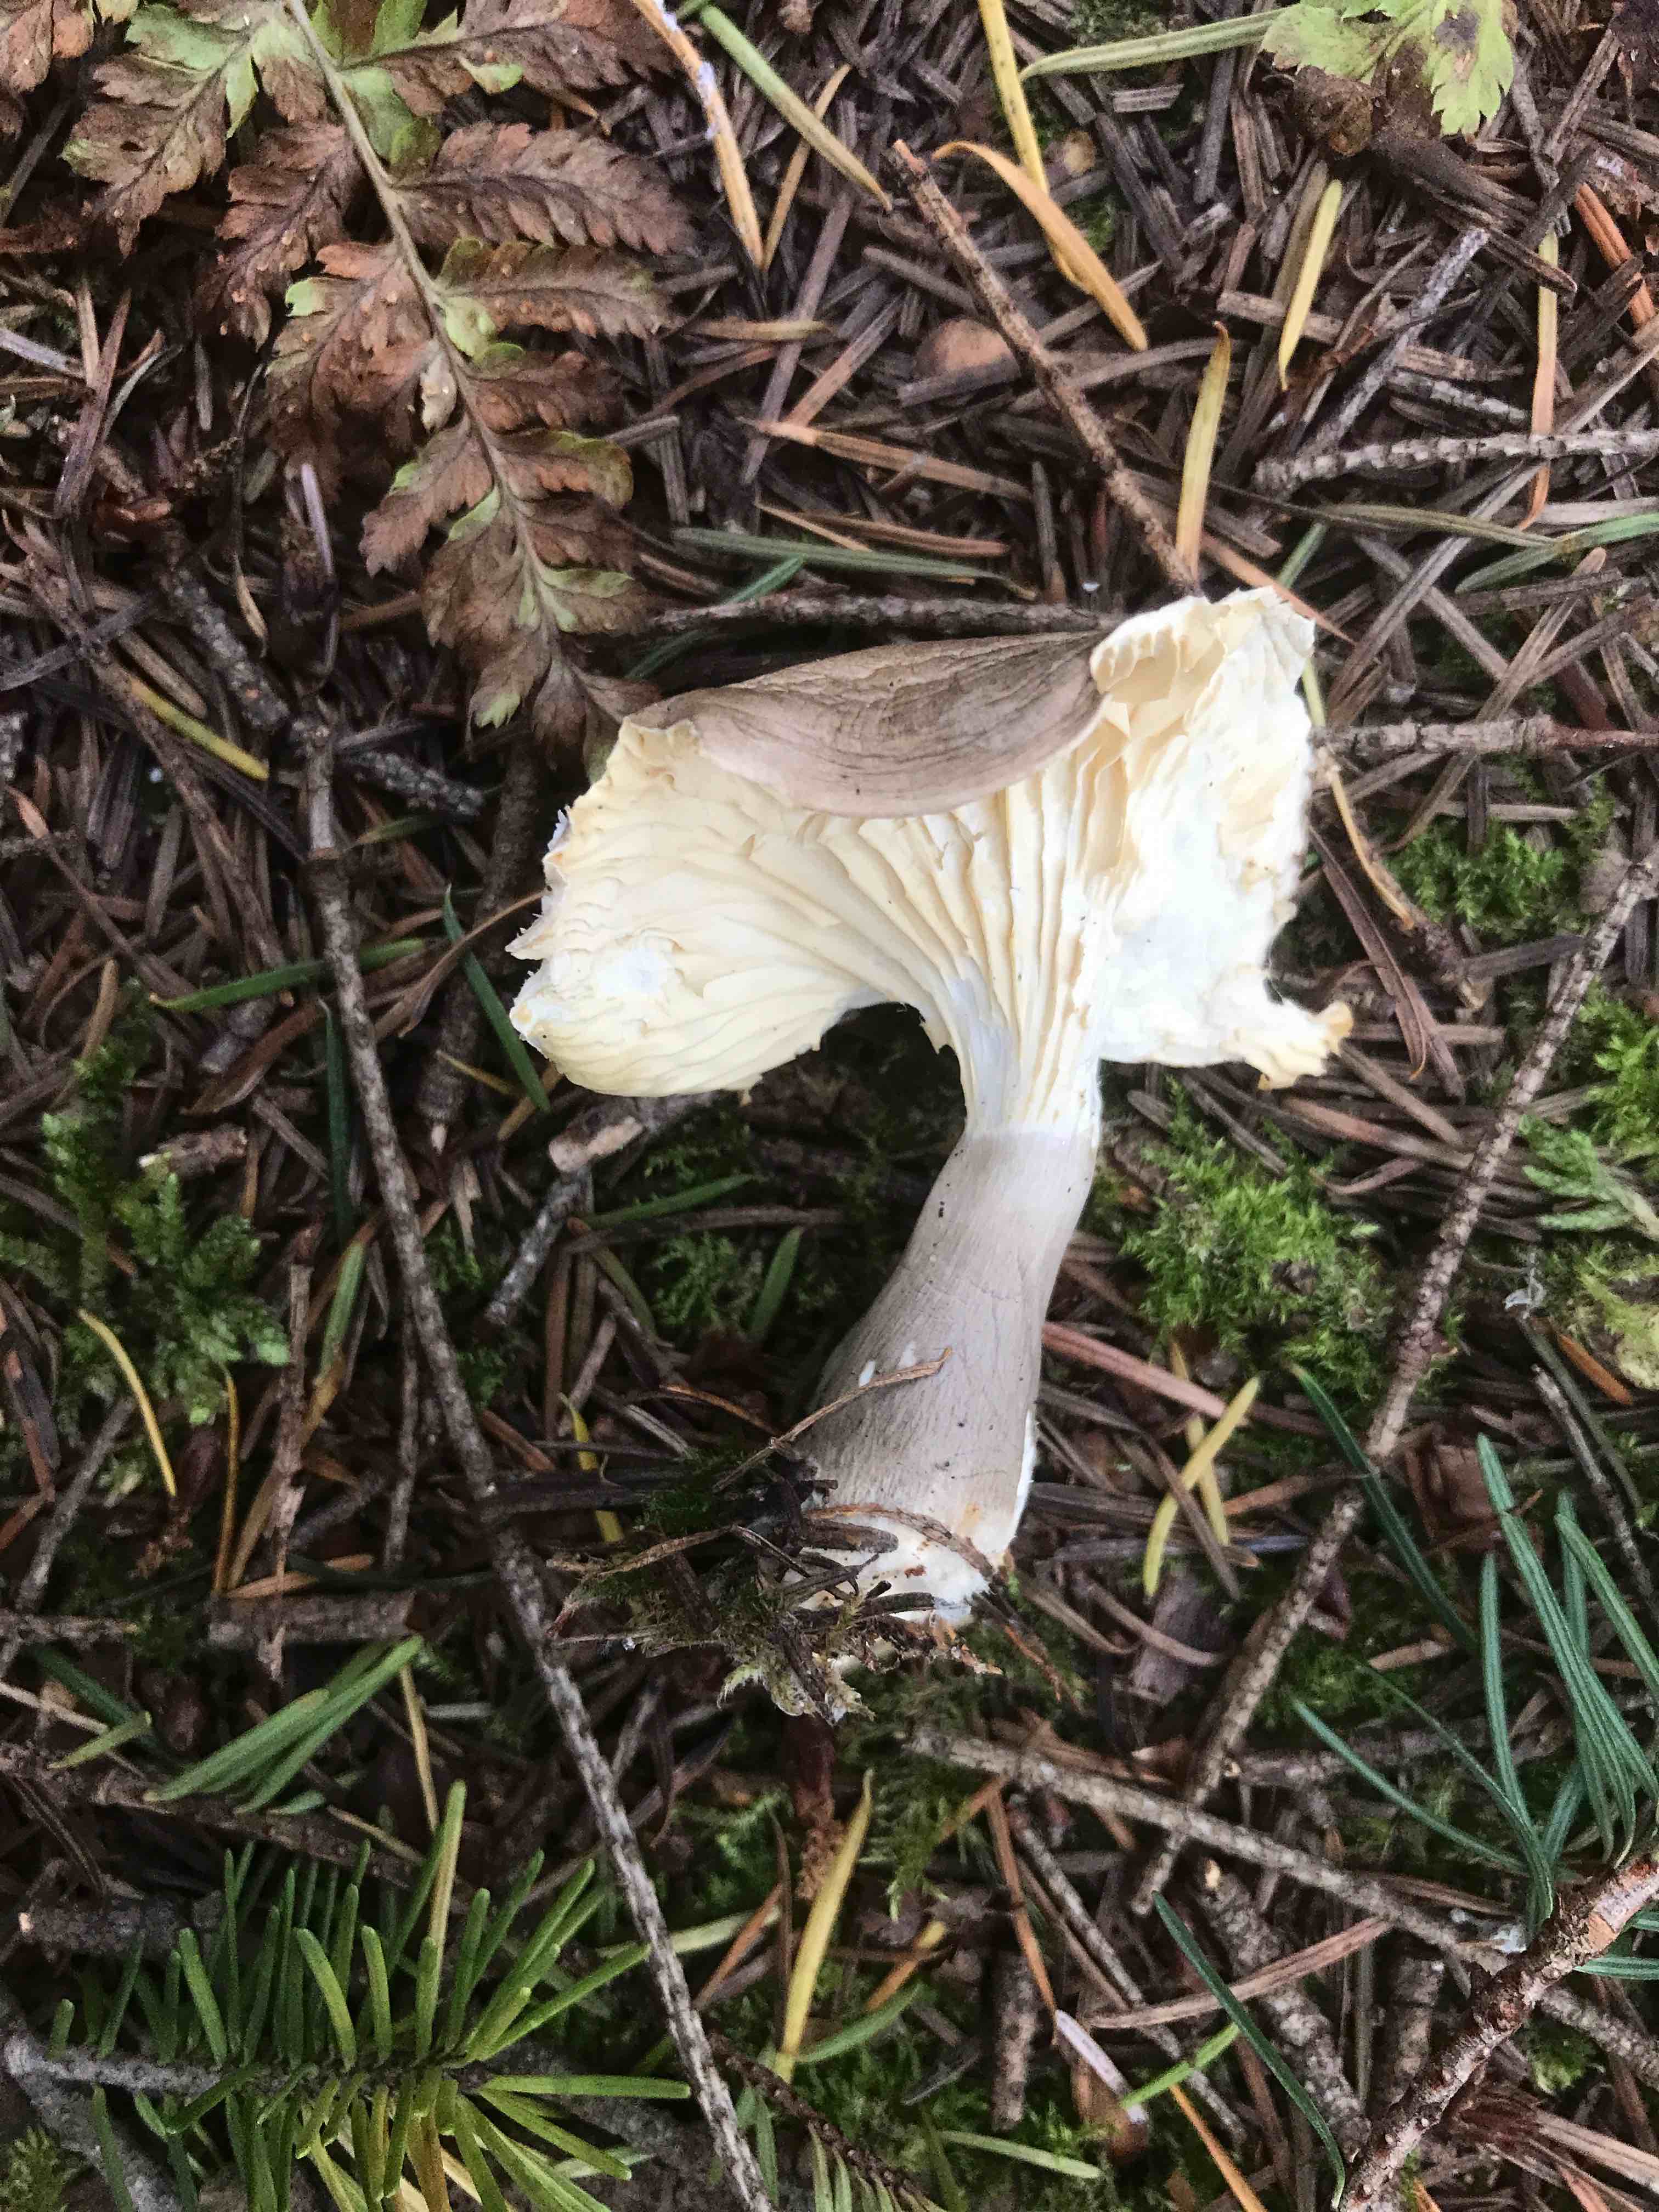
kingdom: Fungi
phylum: Basidiomycota
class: Agaricomycetes
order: Agaricales
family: Hygrophoraceae
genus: Ampulloclitocybe
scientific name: Ampulloclitocybe clavipes
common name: køllefod
